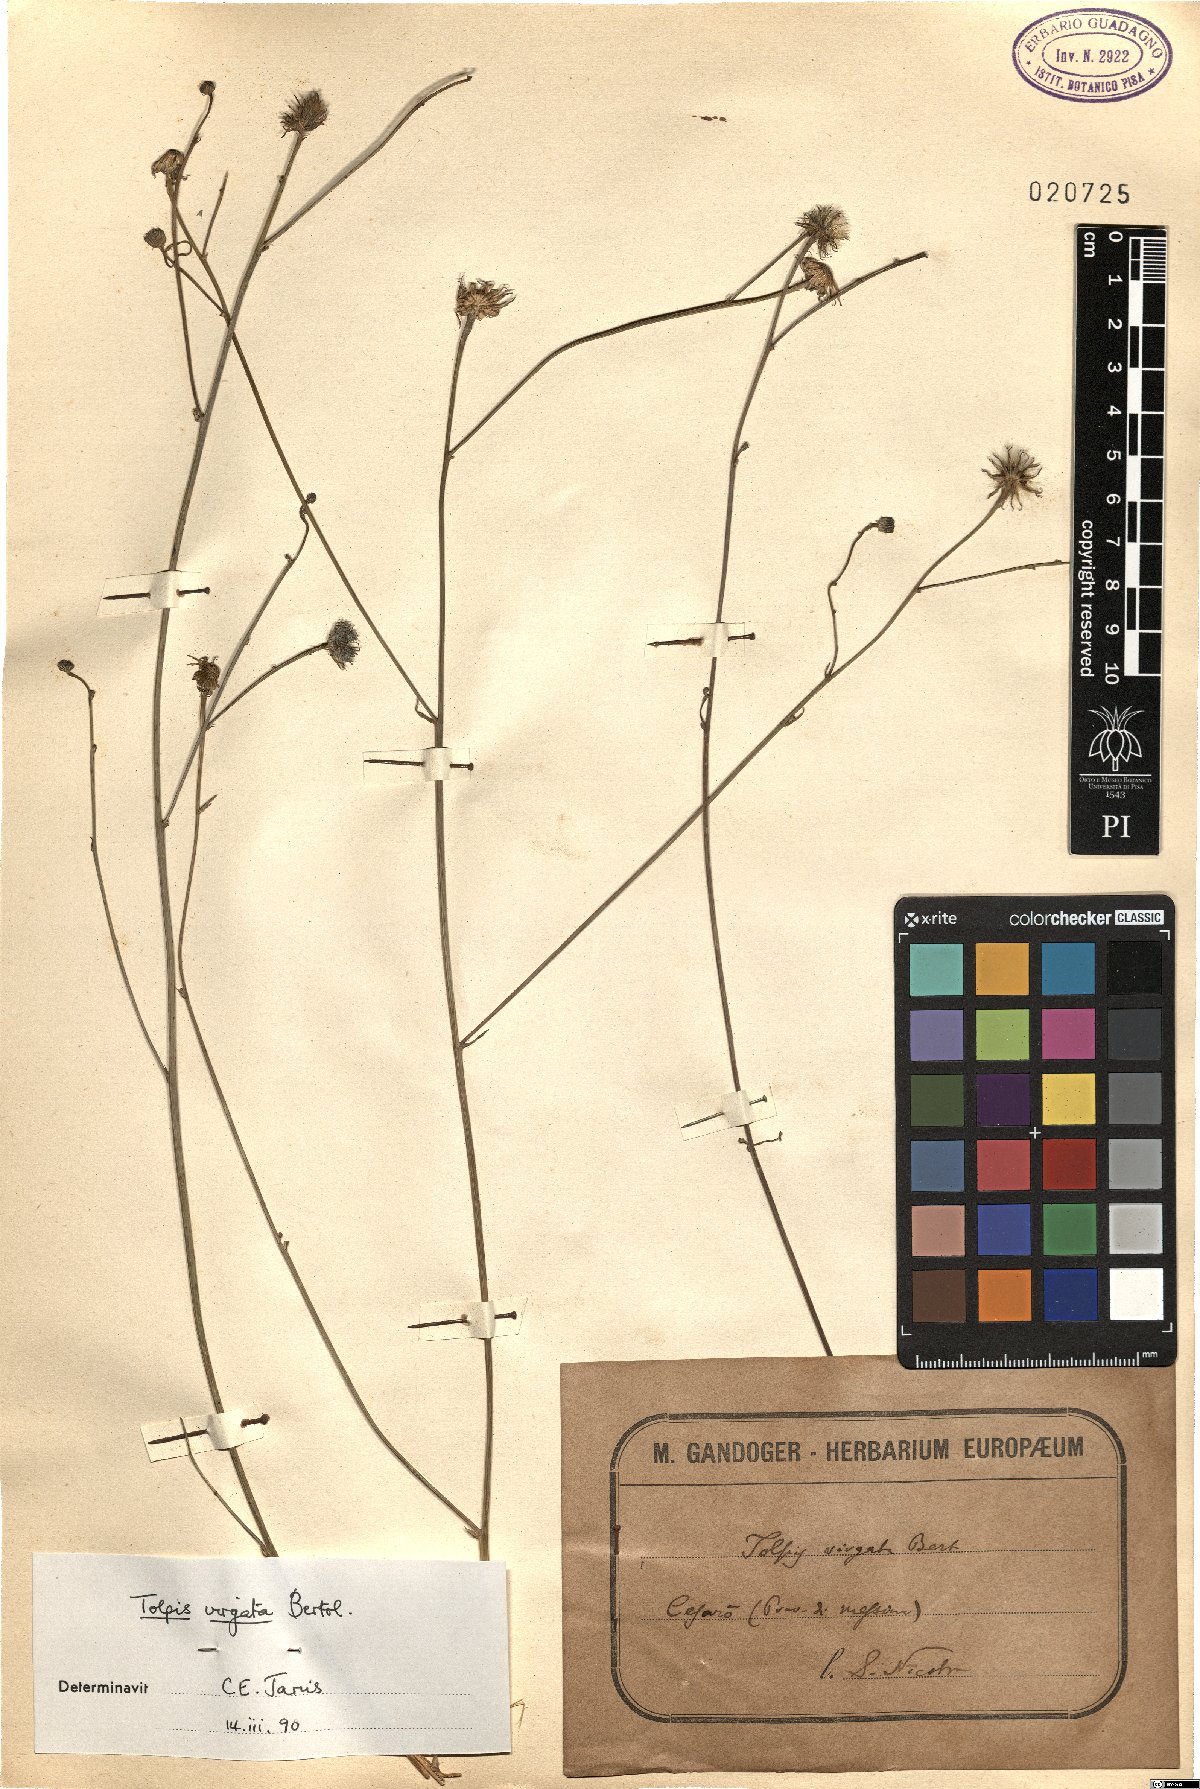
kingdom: Plantae
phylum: Tracheophyta
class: Magnoliopsida
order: Asterales
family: Asteraceae
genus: Tolpis
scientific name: Tolpis virgata
